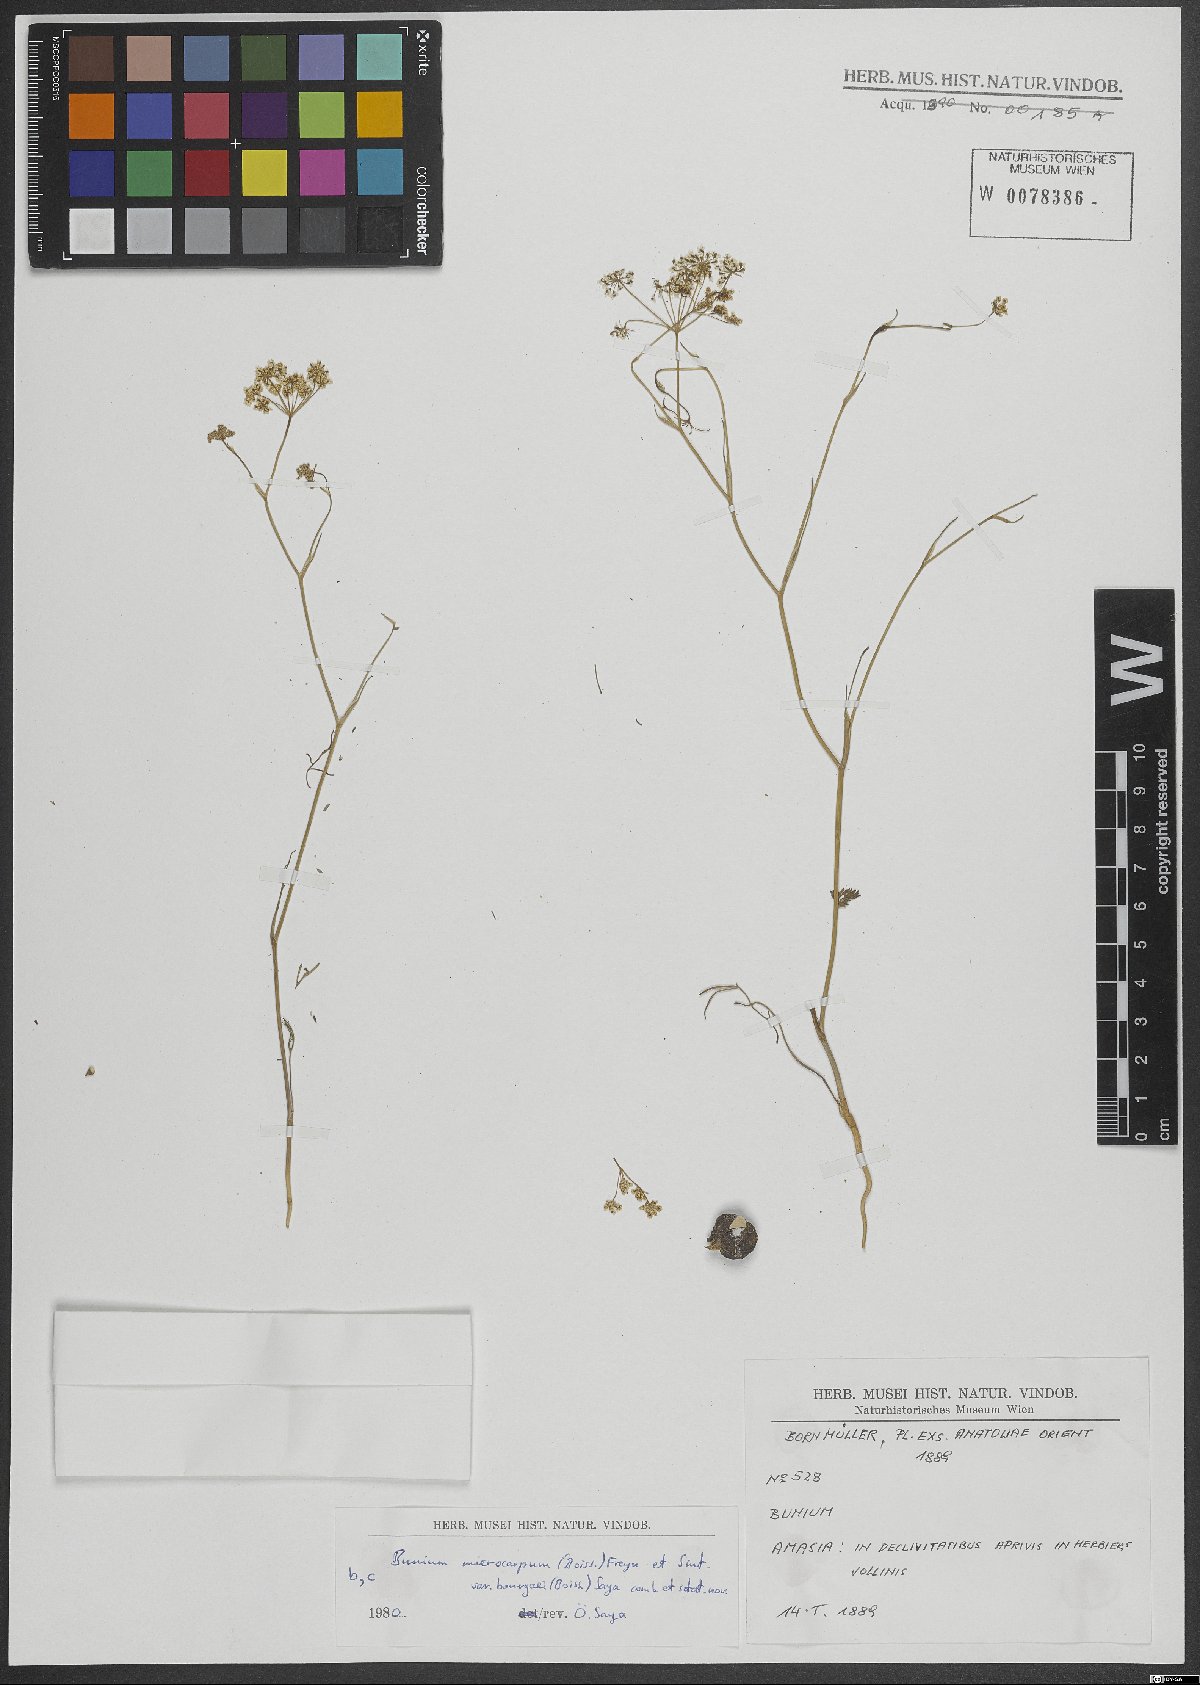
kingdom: Plantae
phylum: Tracheophyta
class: Magnoliopsida
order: Apiales
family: Apiaceae
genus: Bunium
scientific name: Bunium
